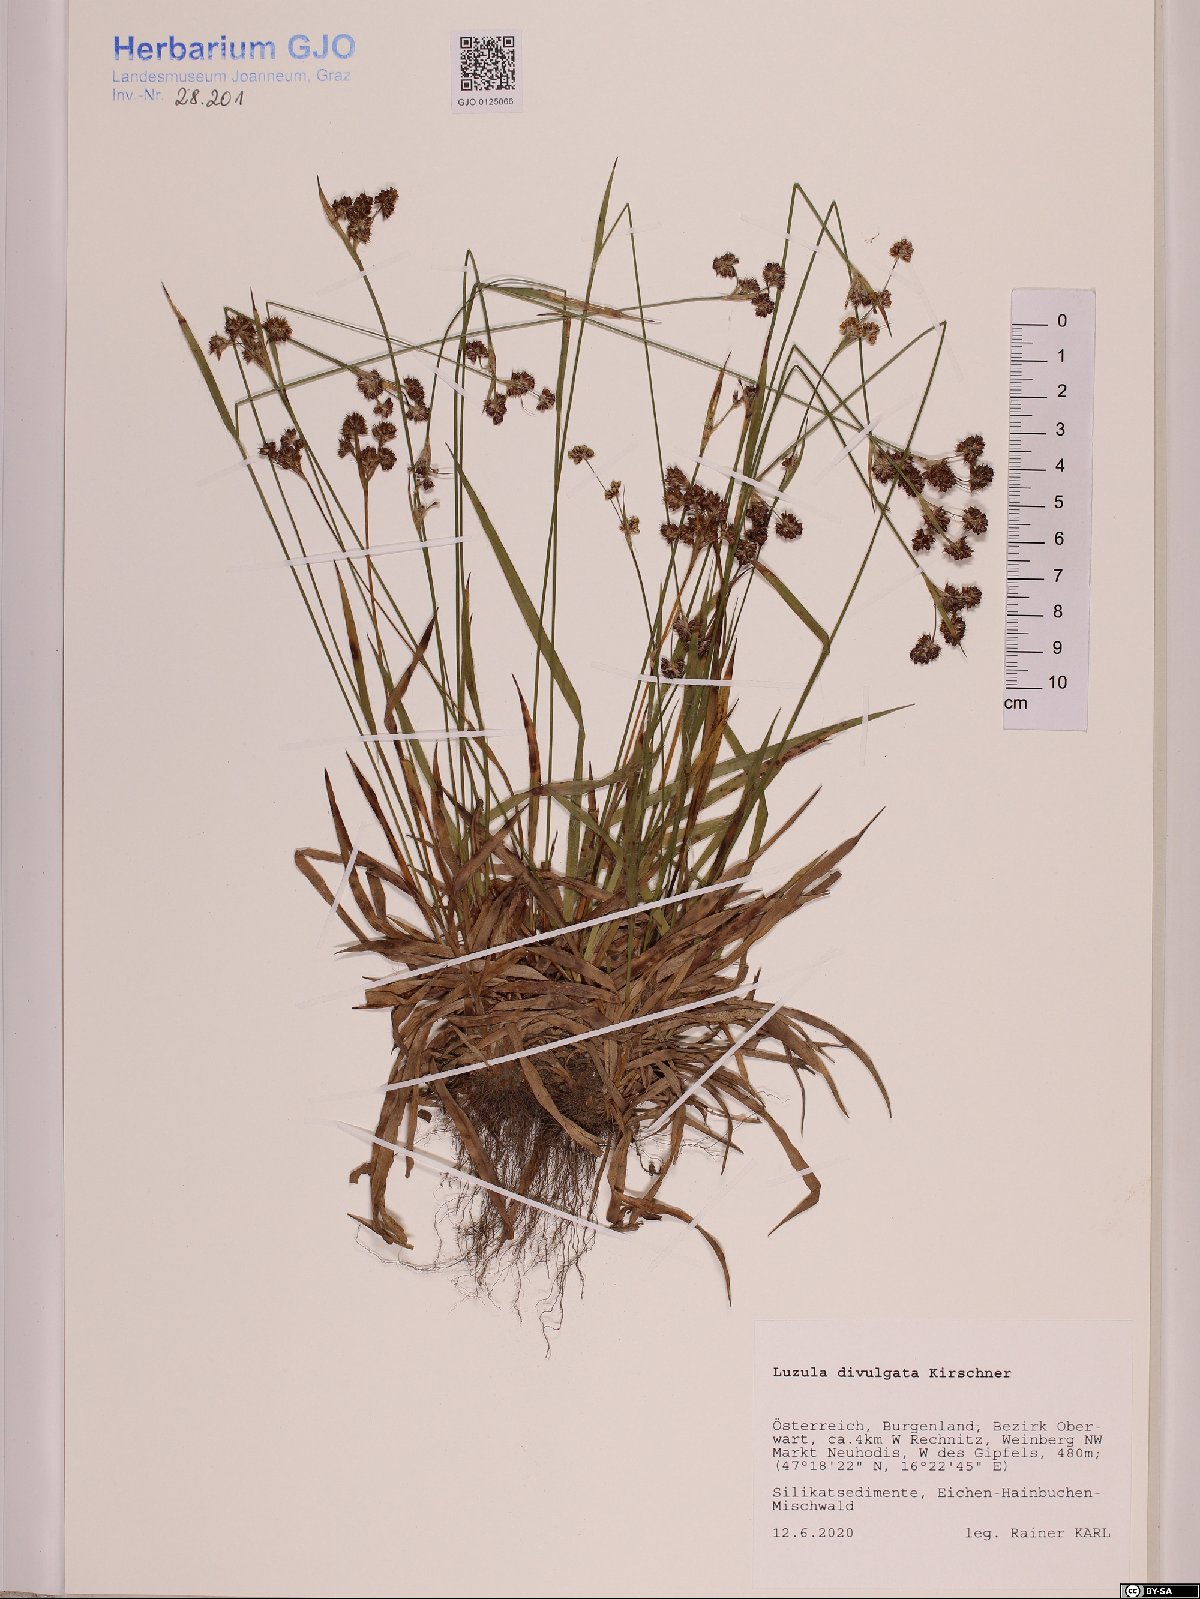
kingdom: Plantae
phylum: Tracheophyta
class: Liliopsida
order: Poales
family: Juncaceae
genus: Luzula
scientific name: Luzula divulgata
